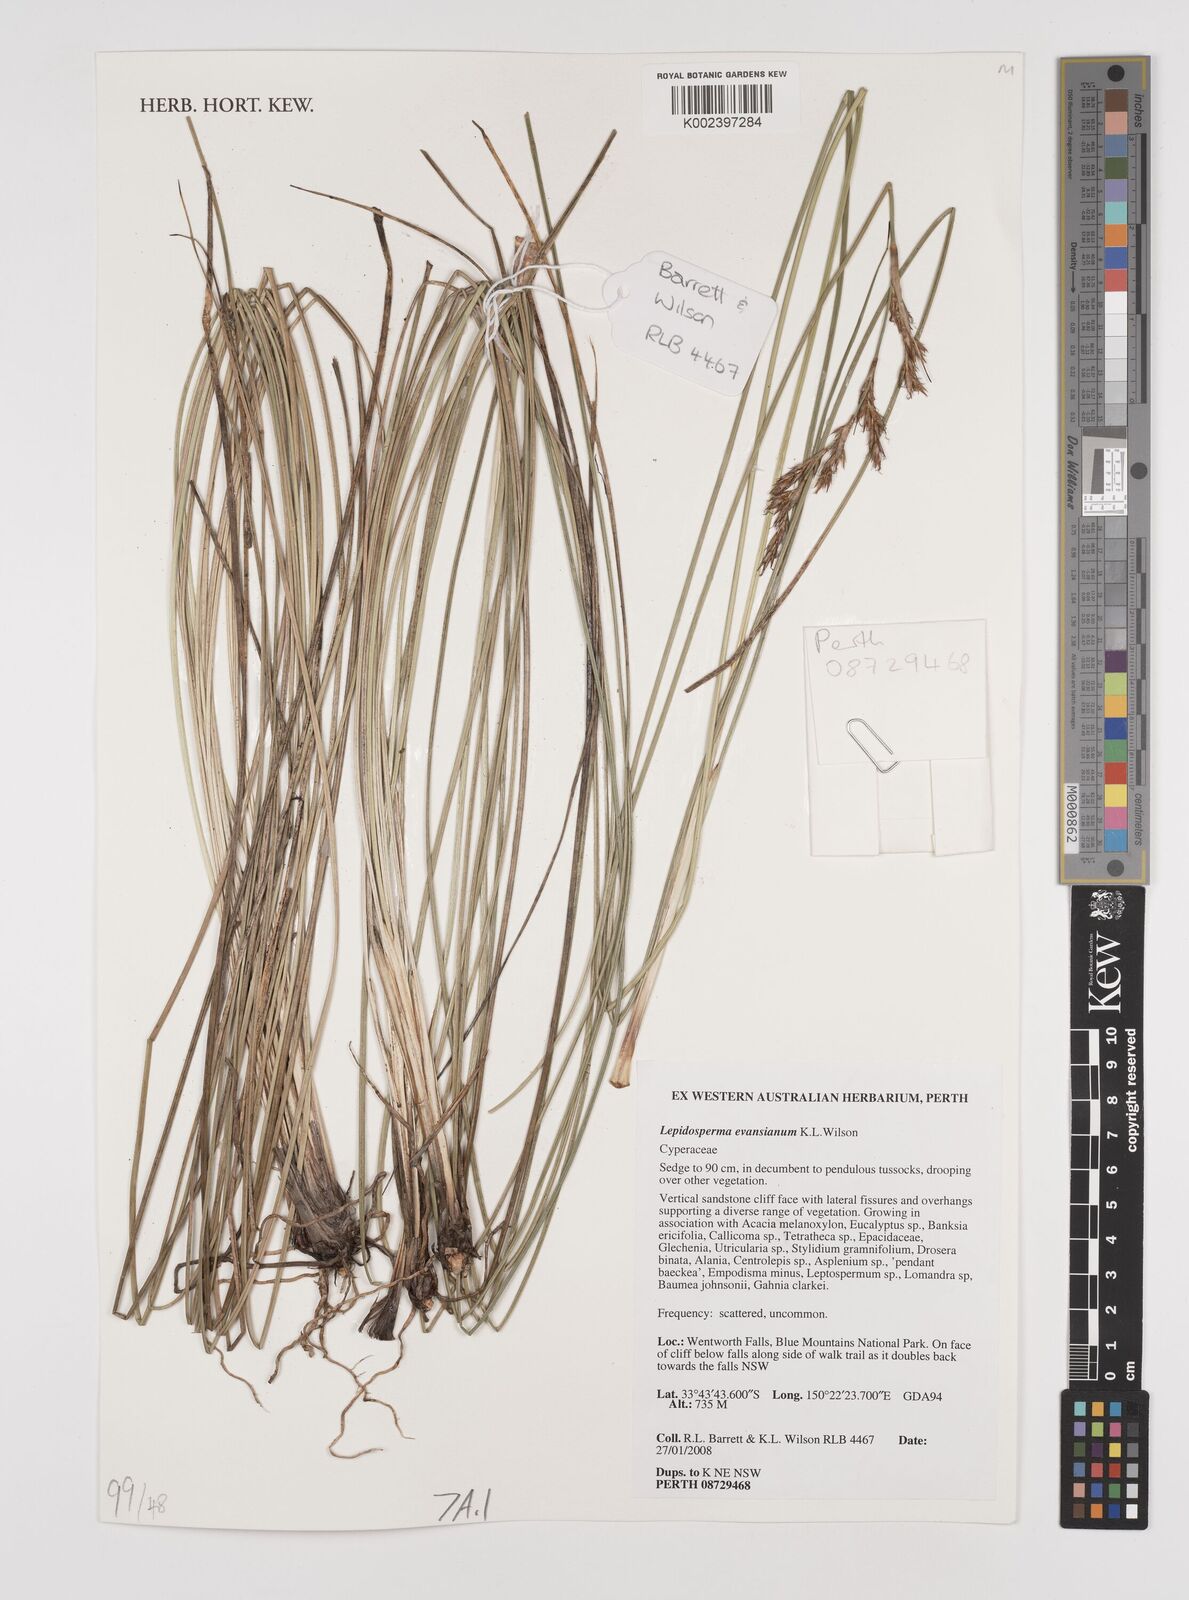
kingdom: Plantae
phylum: Tracheophyta
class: Liliopsida
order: Poales
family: Cyperaceae
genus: Lepidosperma
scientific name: Lepidosperma evansianum
